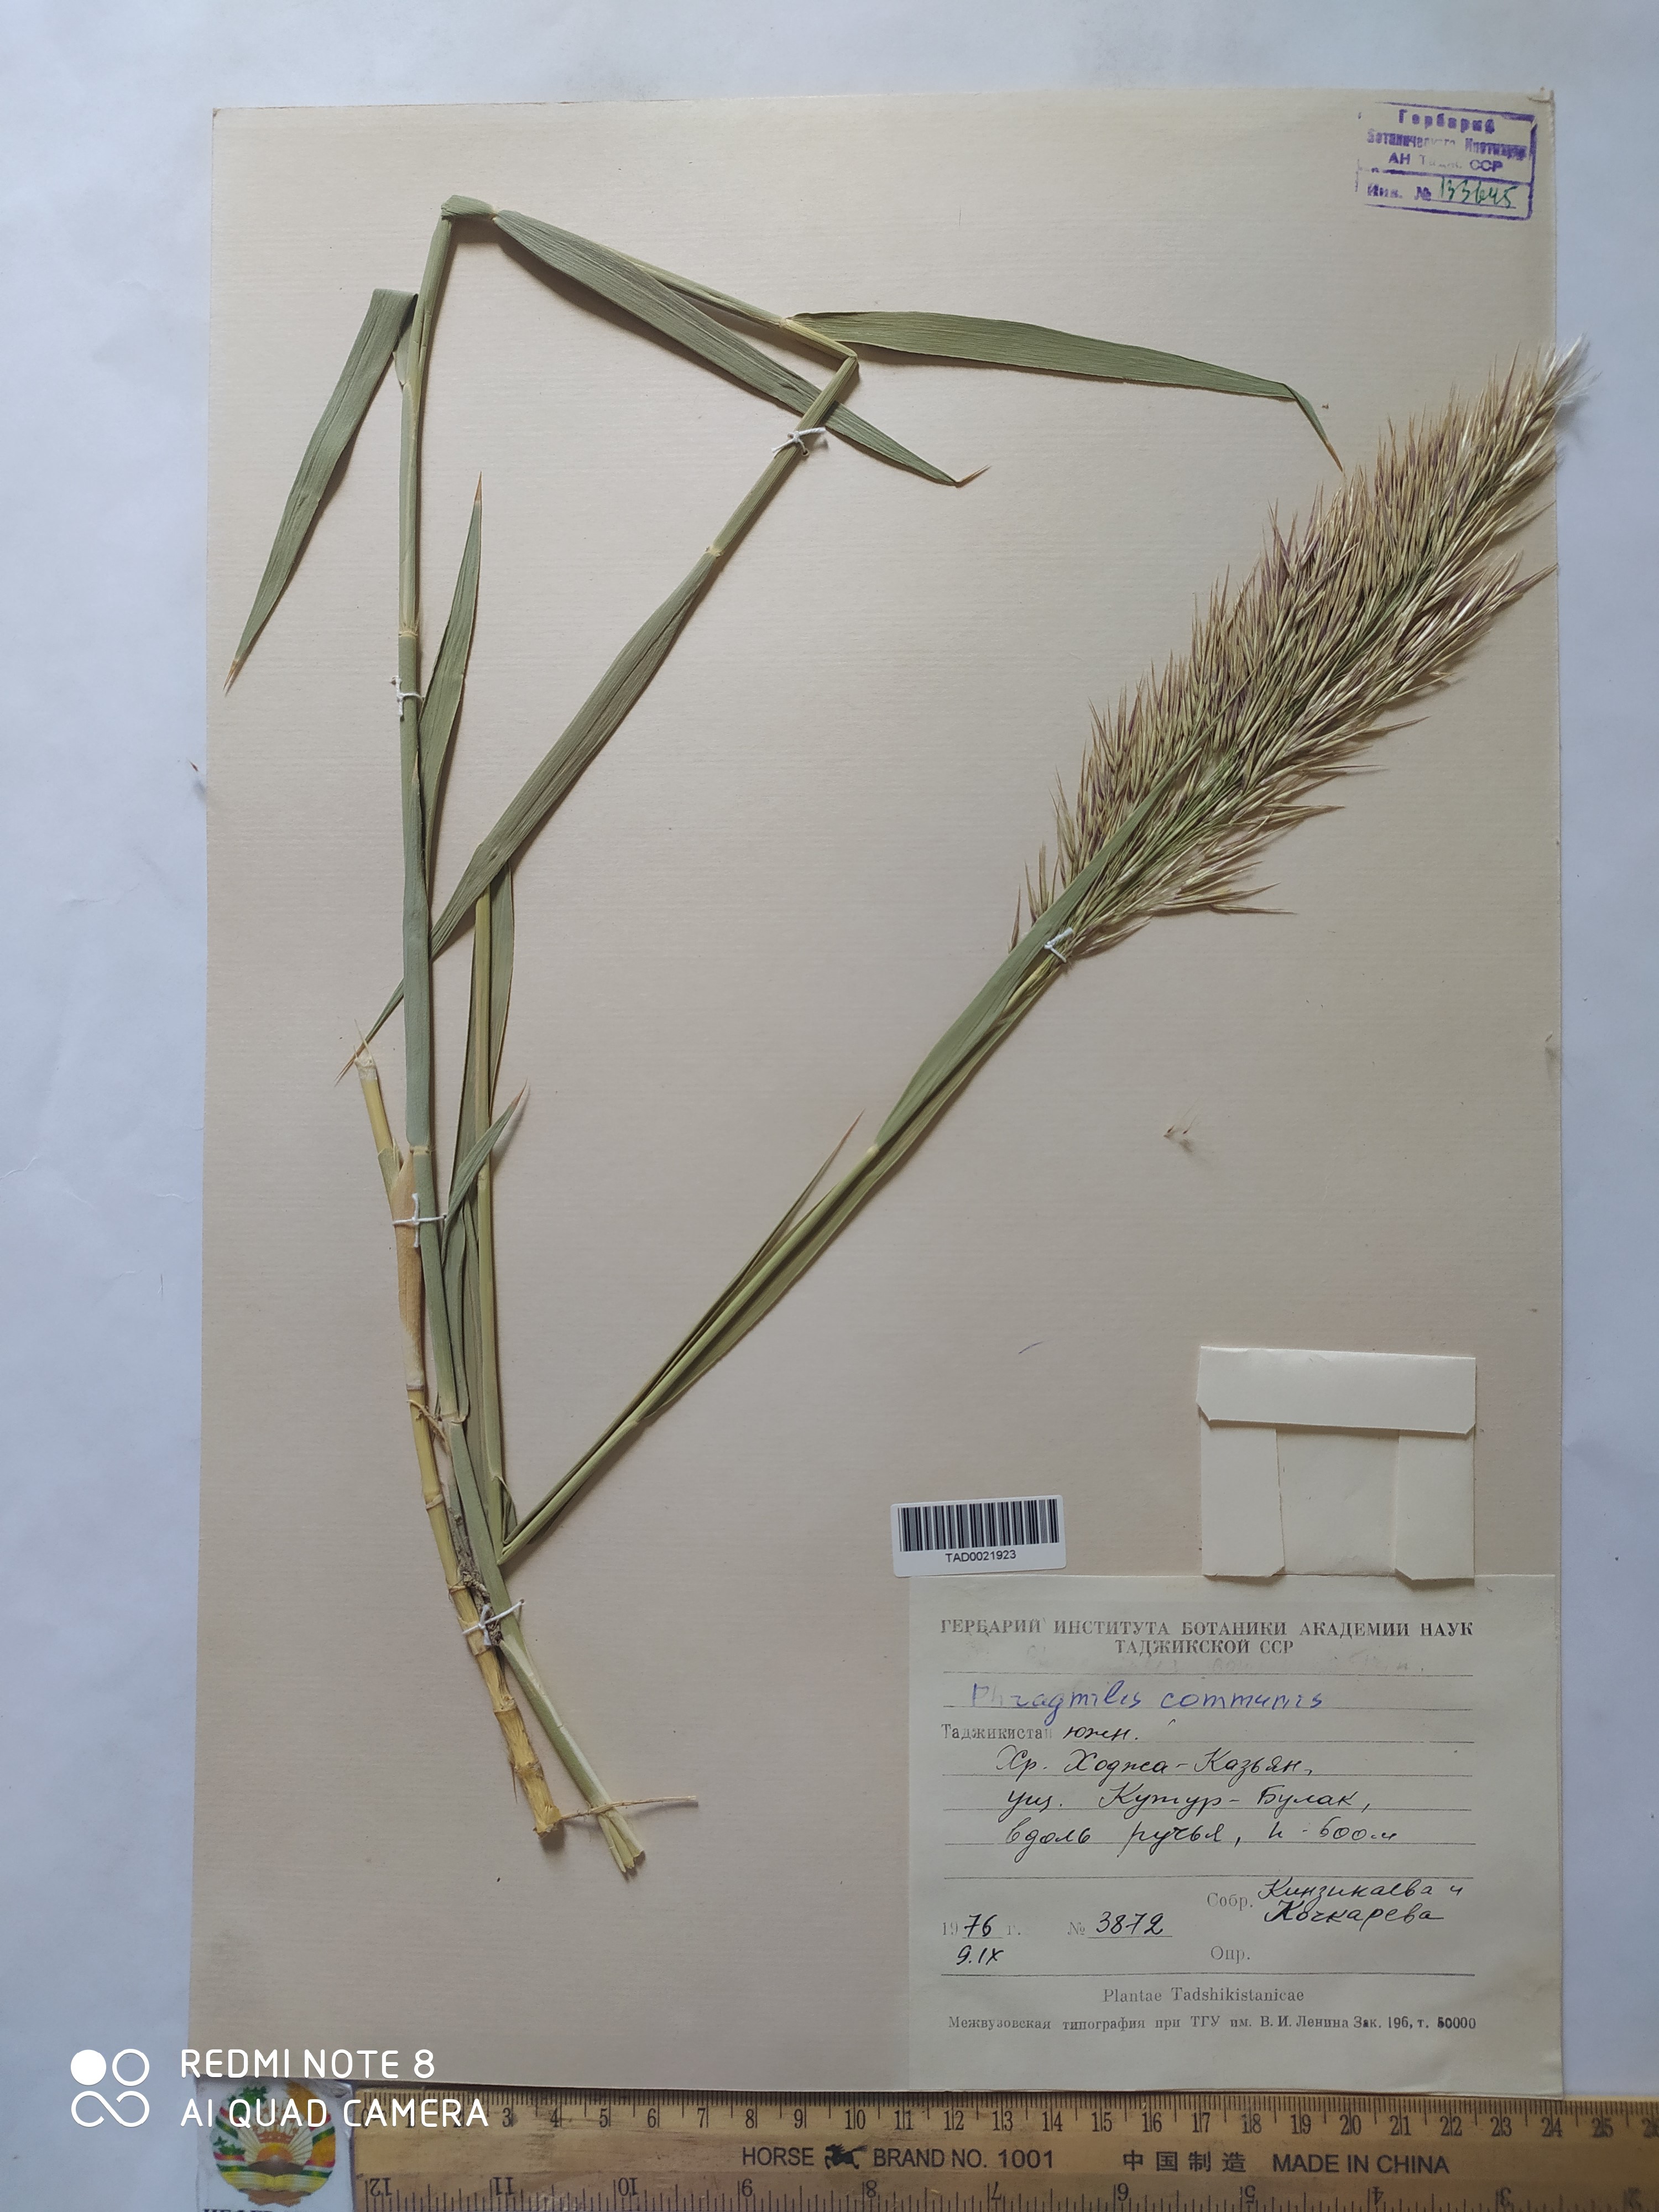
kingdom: Plantae
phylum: Tracheophyta
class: Liliopsida
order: Poales
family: Poaceae
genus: Phragmites
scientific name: Phragmites australis
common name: Common reed
